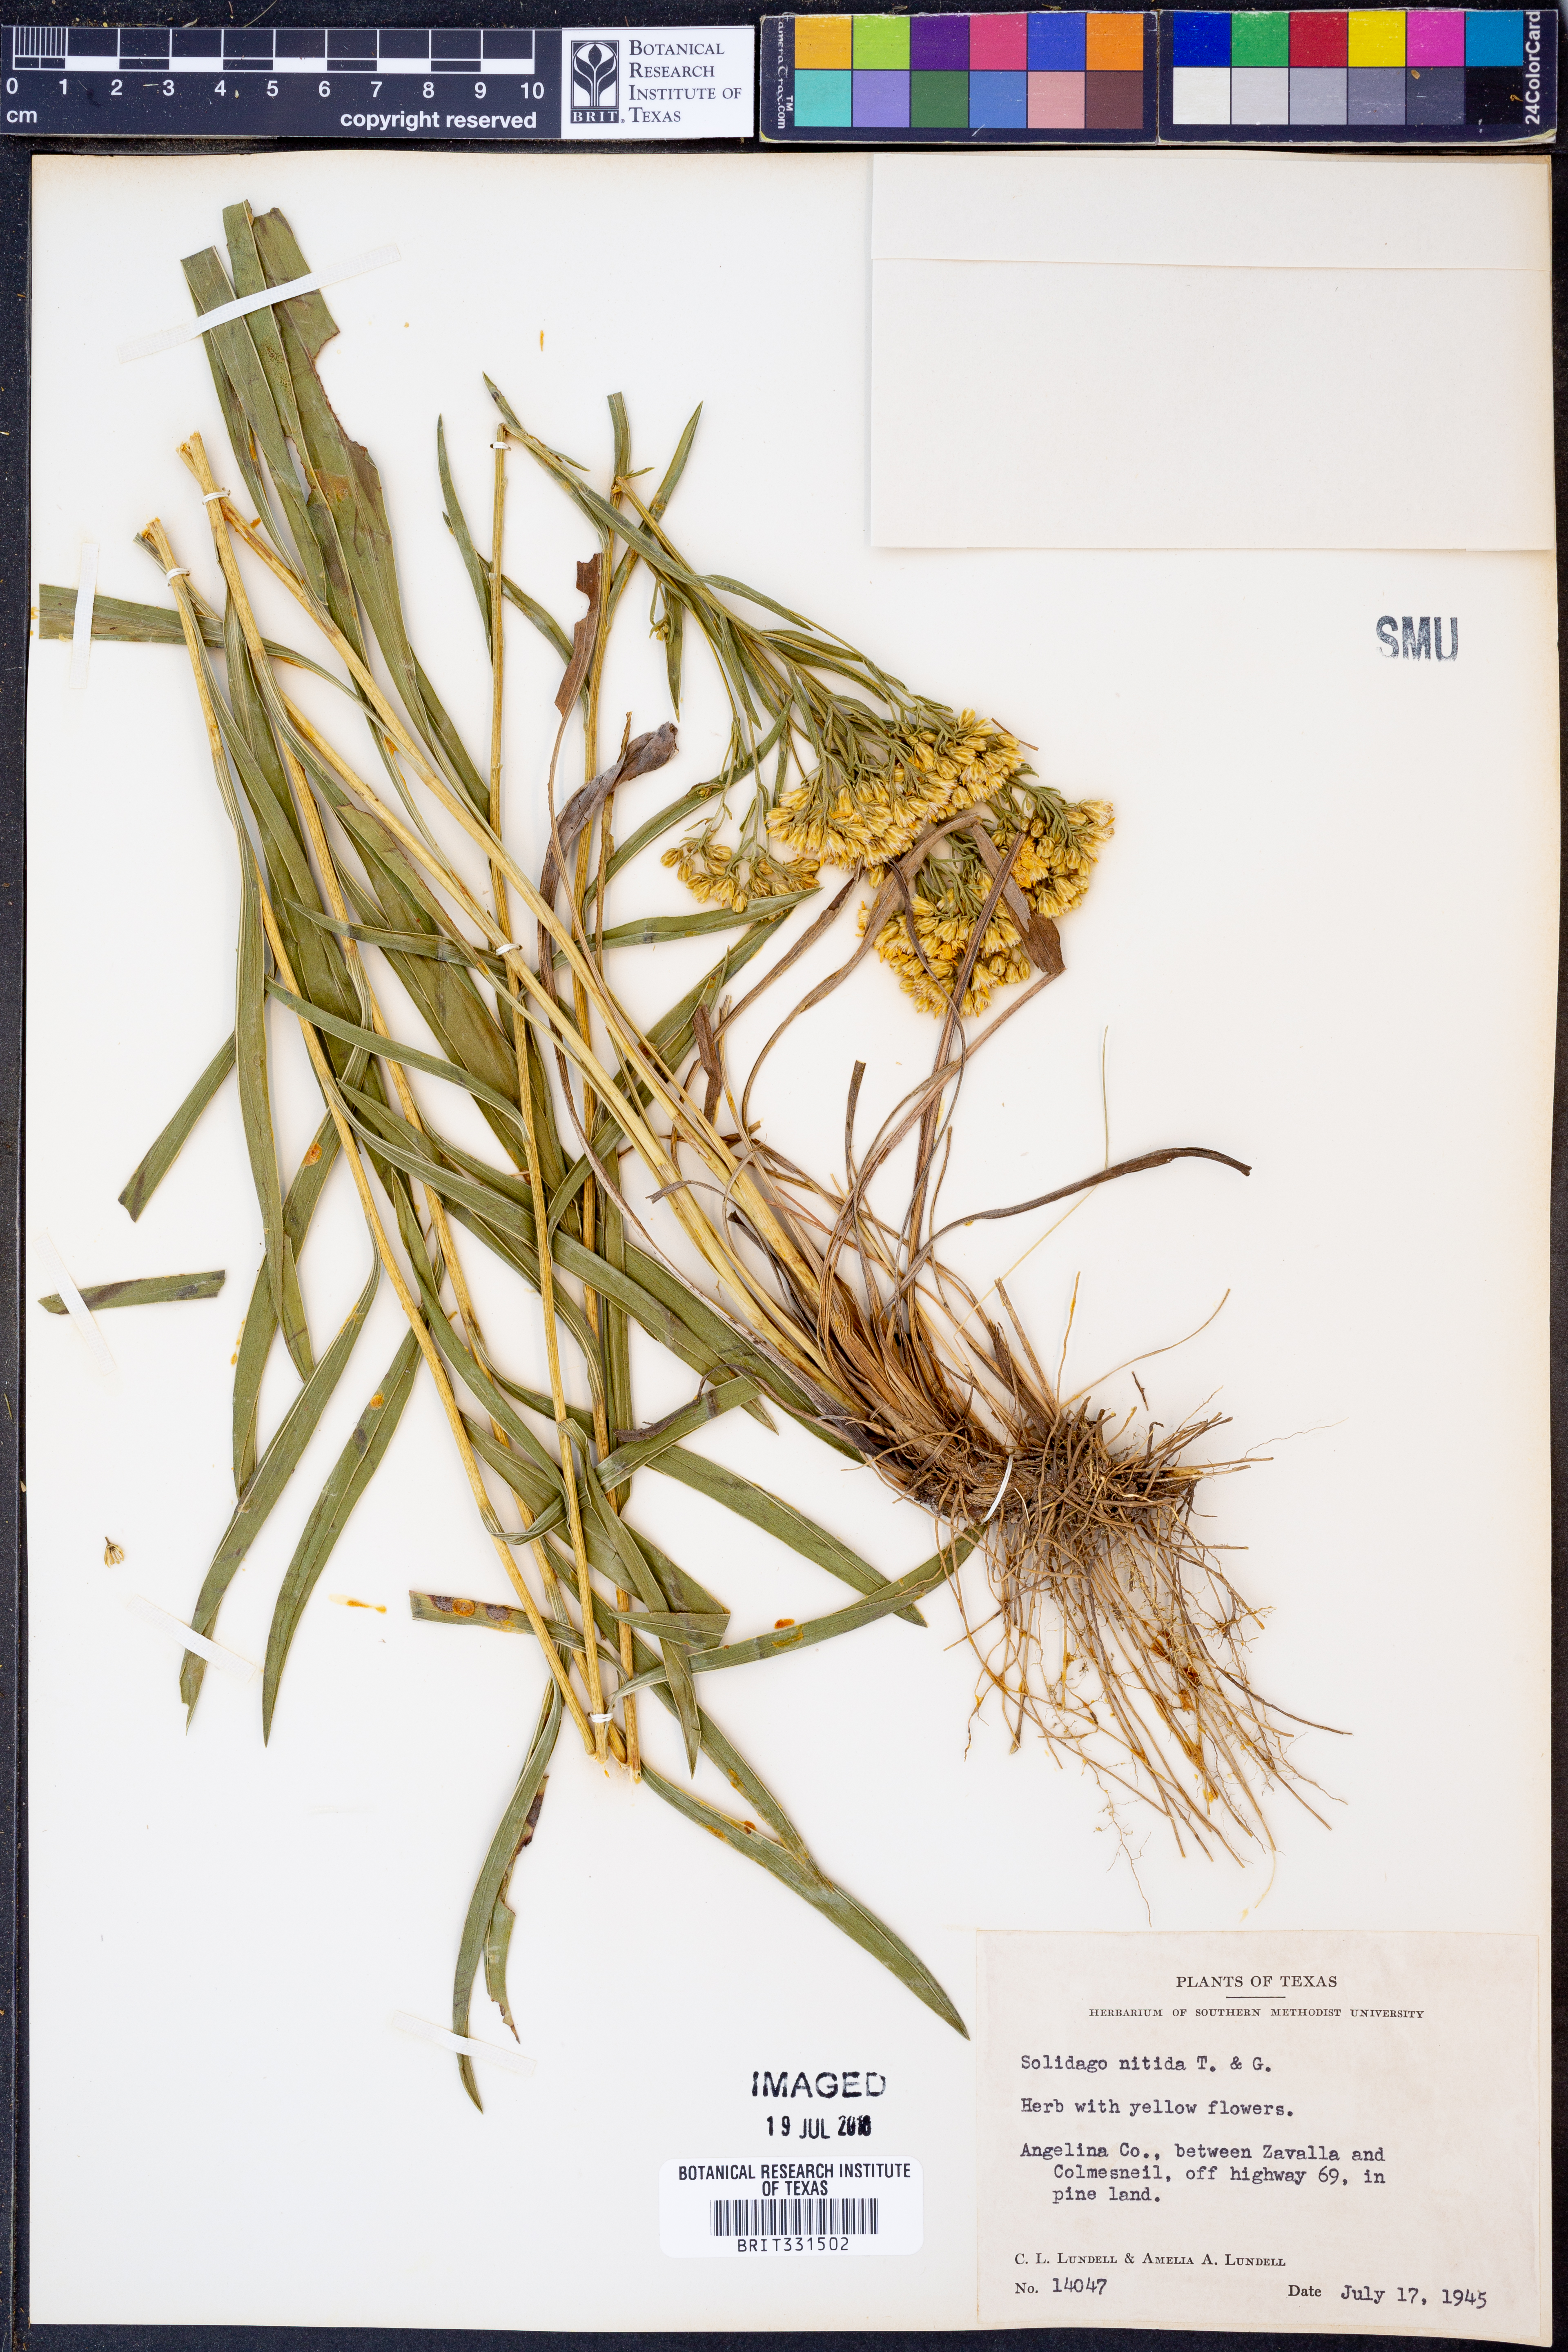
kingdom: Plantae
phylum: Tracheophyta
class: Magnoliopsida
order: Asterales
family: Asteraceae
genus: Solidago
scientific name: Solidago nitida
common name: Shiny goldenrod
